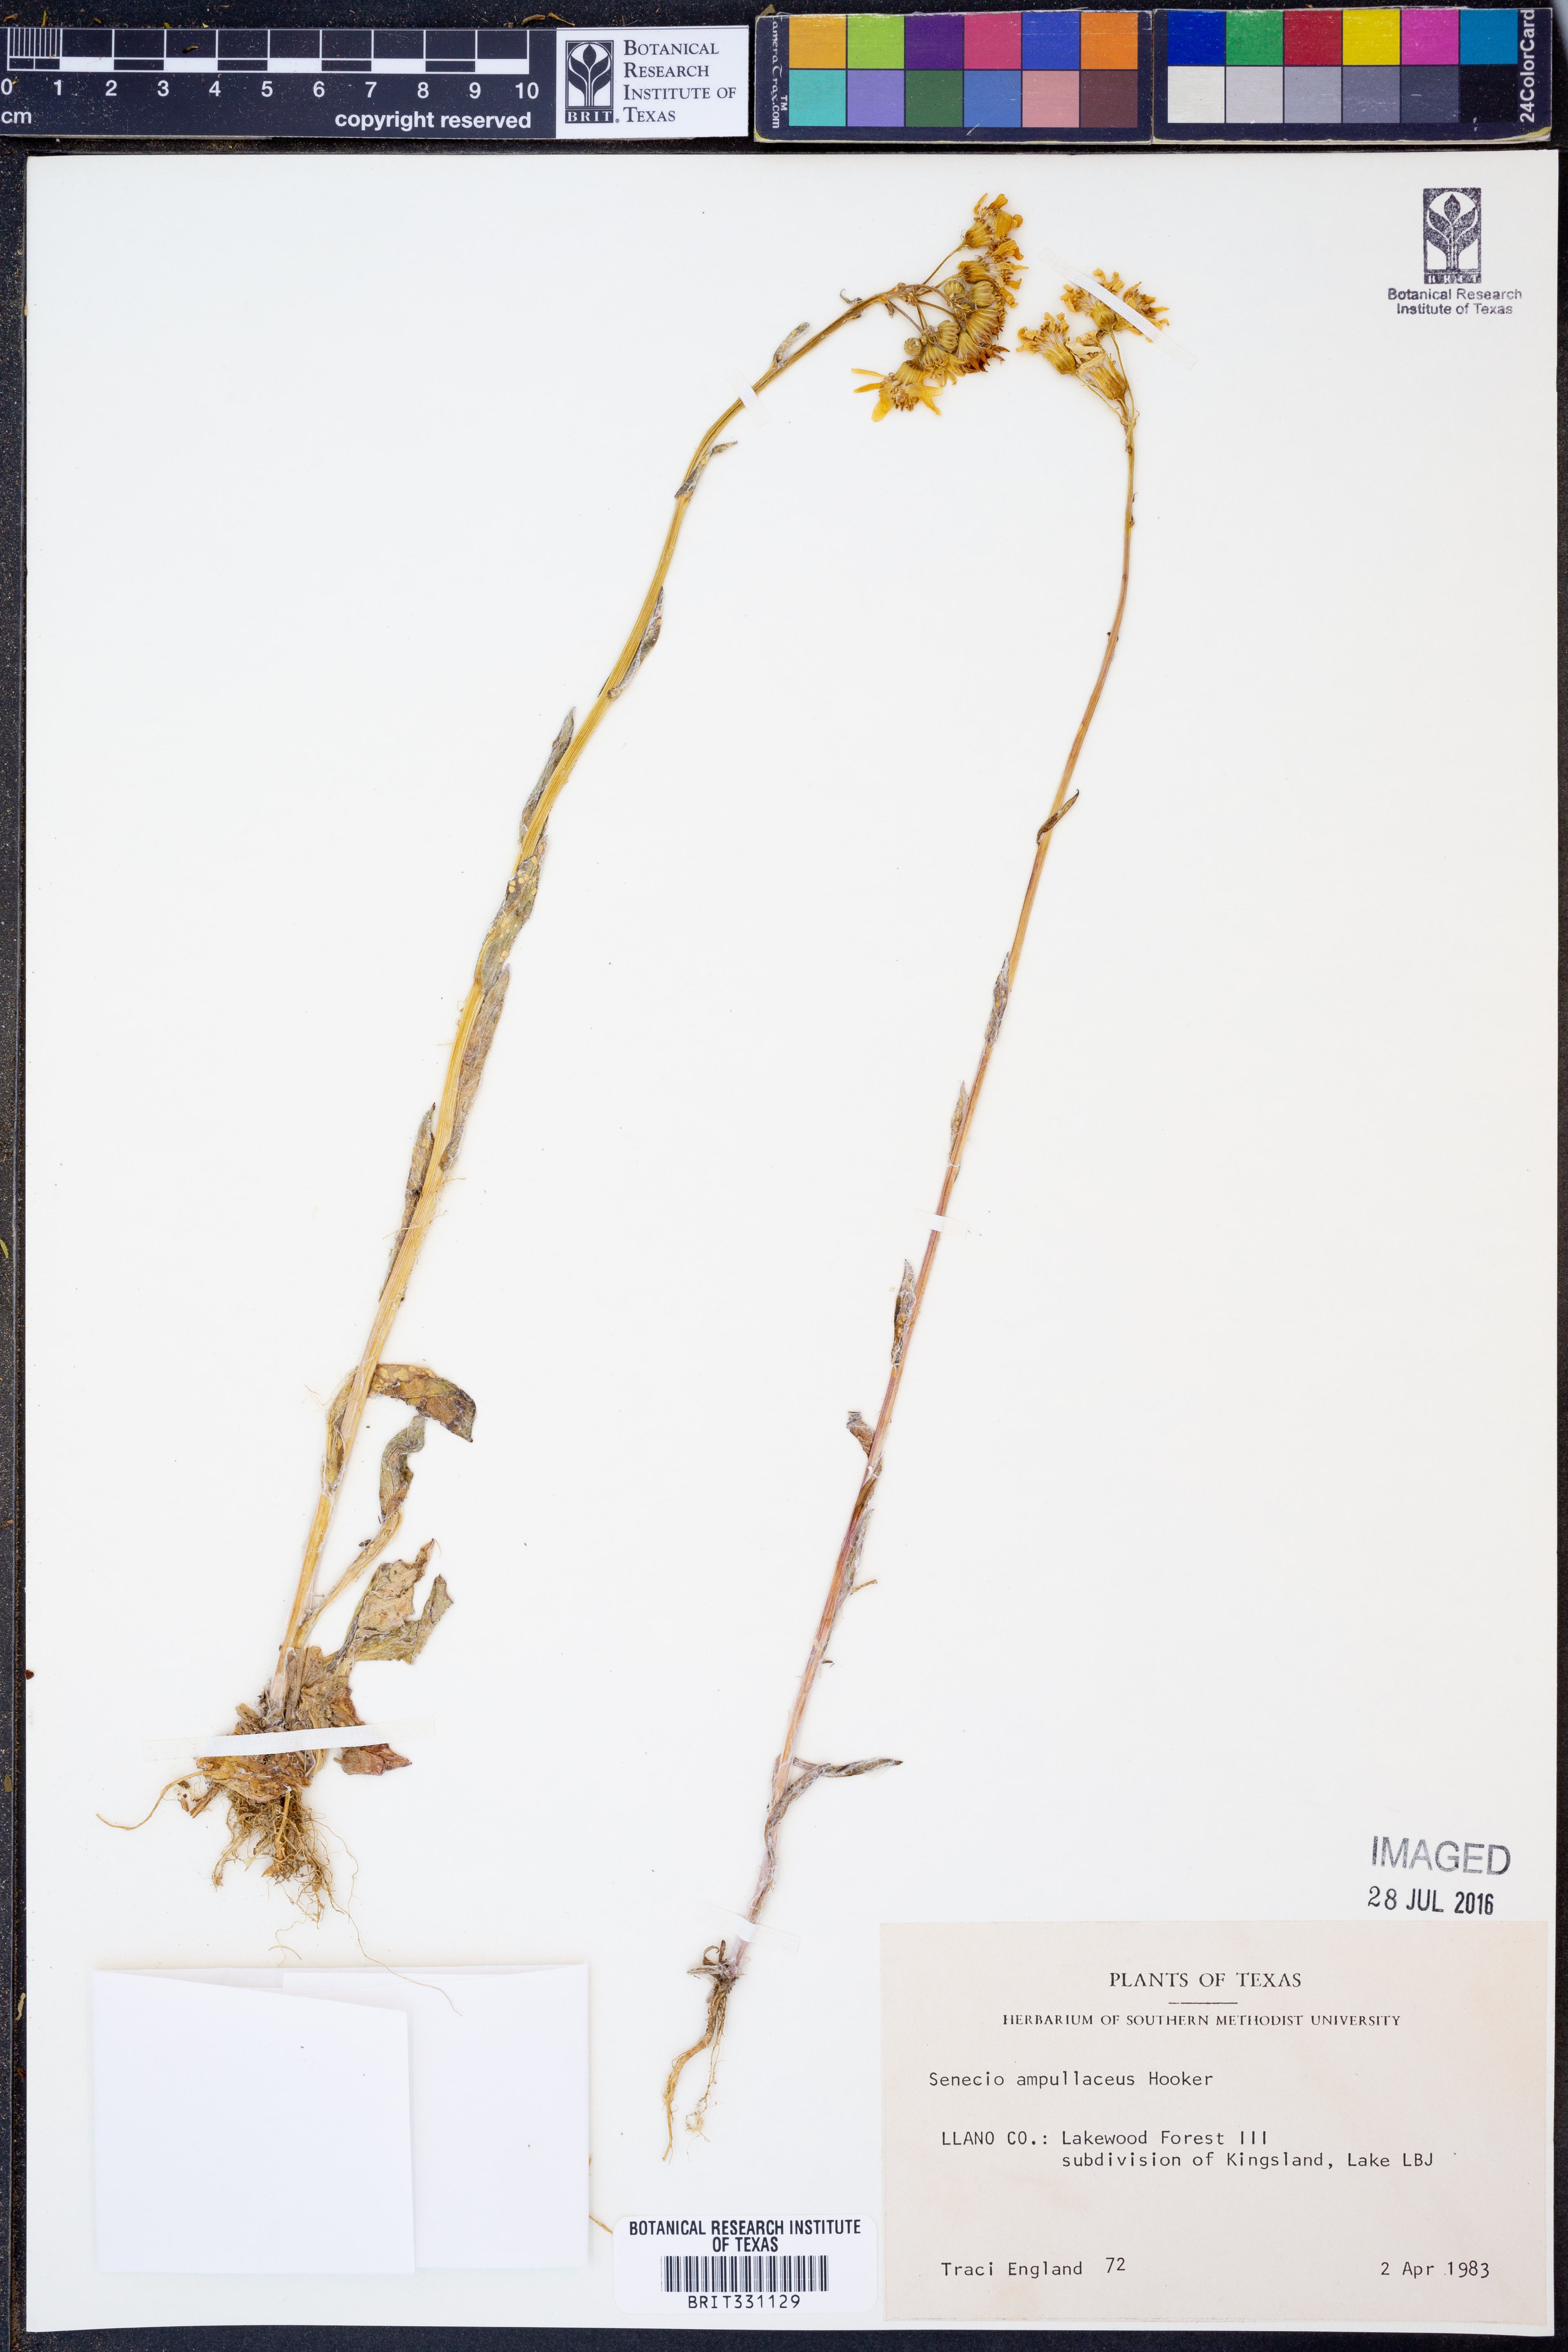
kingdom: Plantae
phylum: Tracheophyta
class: Magnoliopsida
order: Asterales
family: Asteraceae
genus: Senecio
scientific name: Senecio ampullaceus
